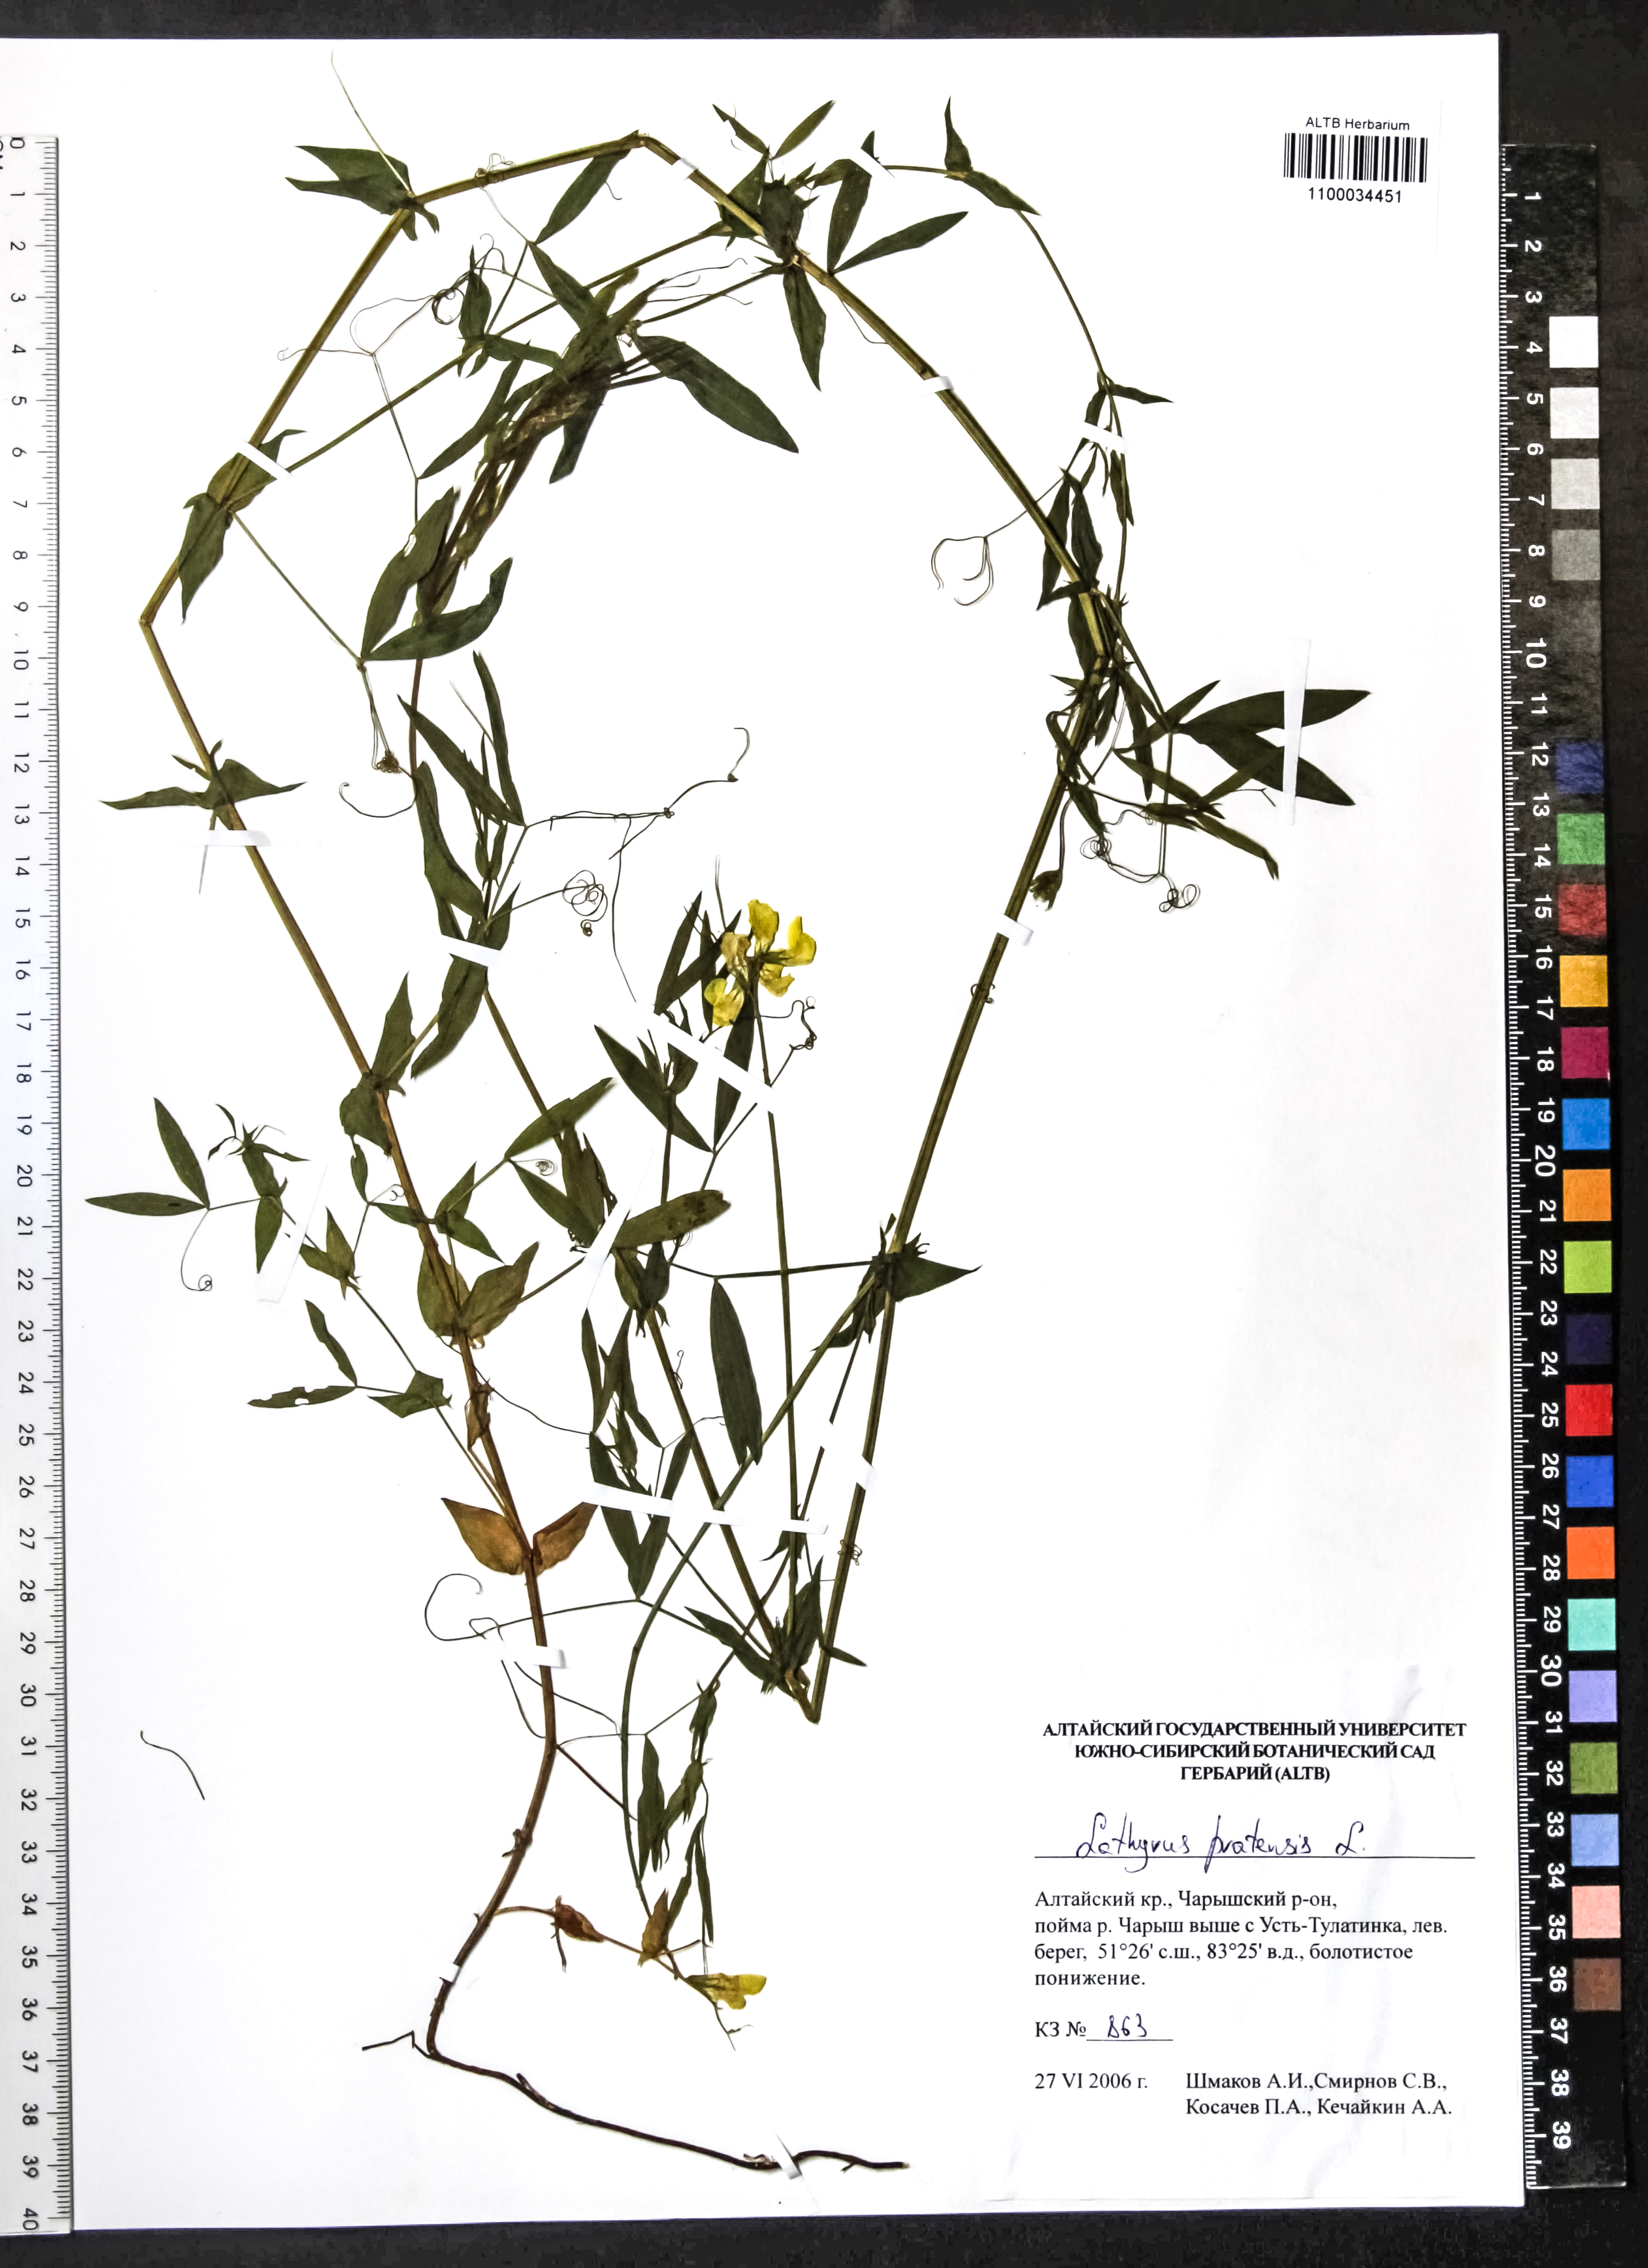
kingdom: Plantae
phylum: Tracheophyta
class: Magnoliopsida
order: Fabales
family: Fabaceae
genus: Lathyrus
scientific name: Lathyrus pratensis
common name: Meadow vetchling
